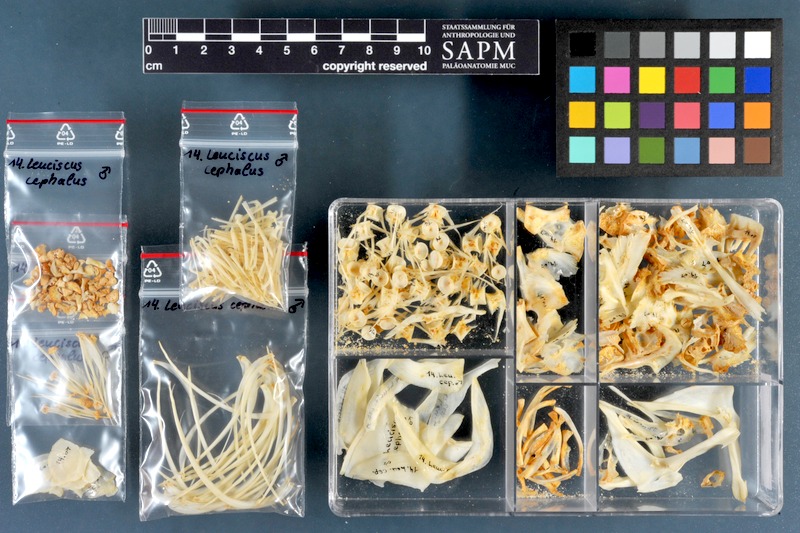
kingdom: Animalia
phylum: Chordata
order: Cypriniformes
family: Cyprinidae
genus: Squalius
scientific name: Squalius cephalus
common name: Chub
